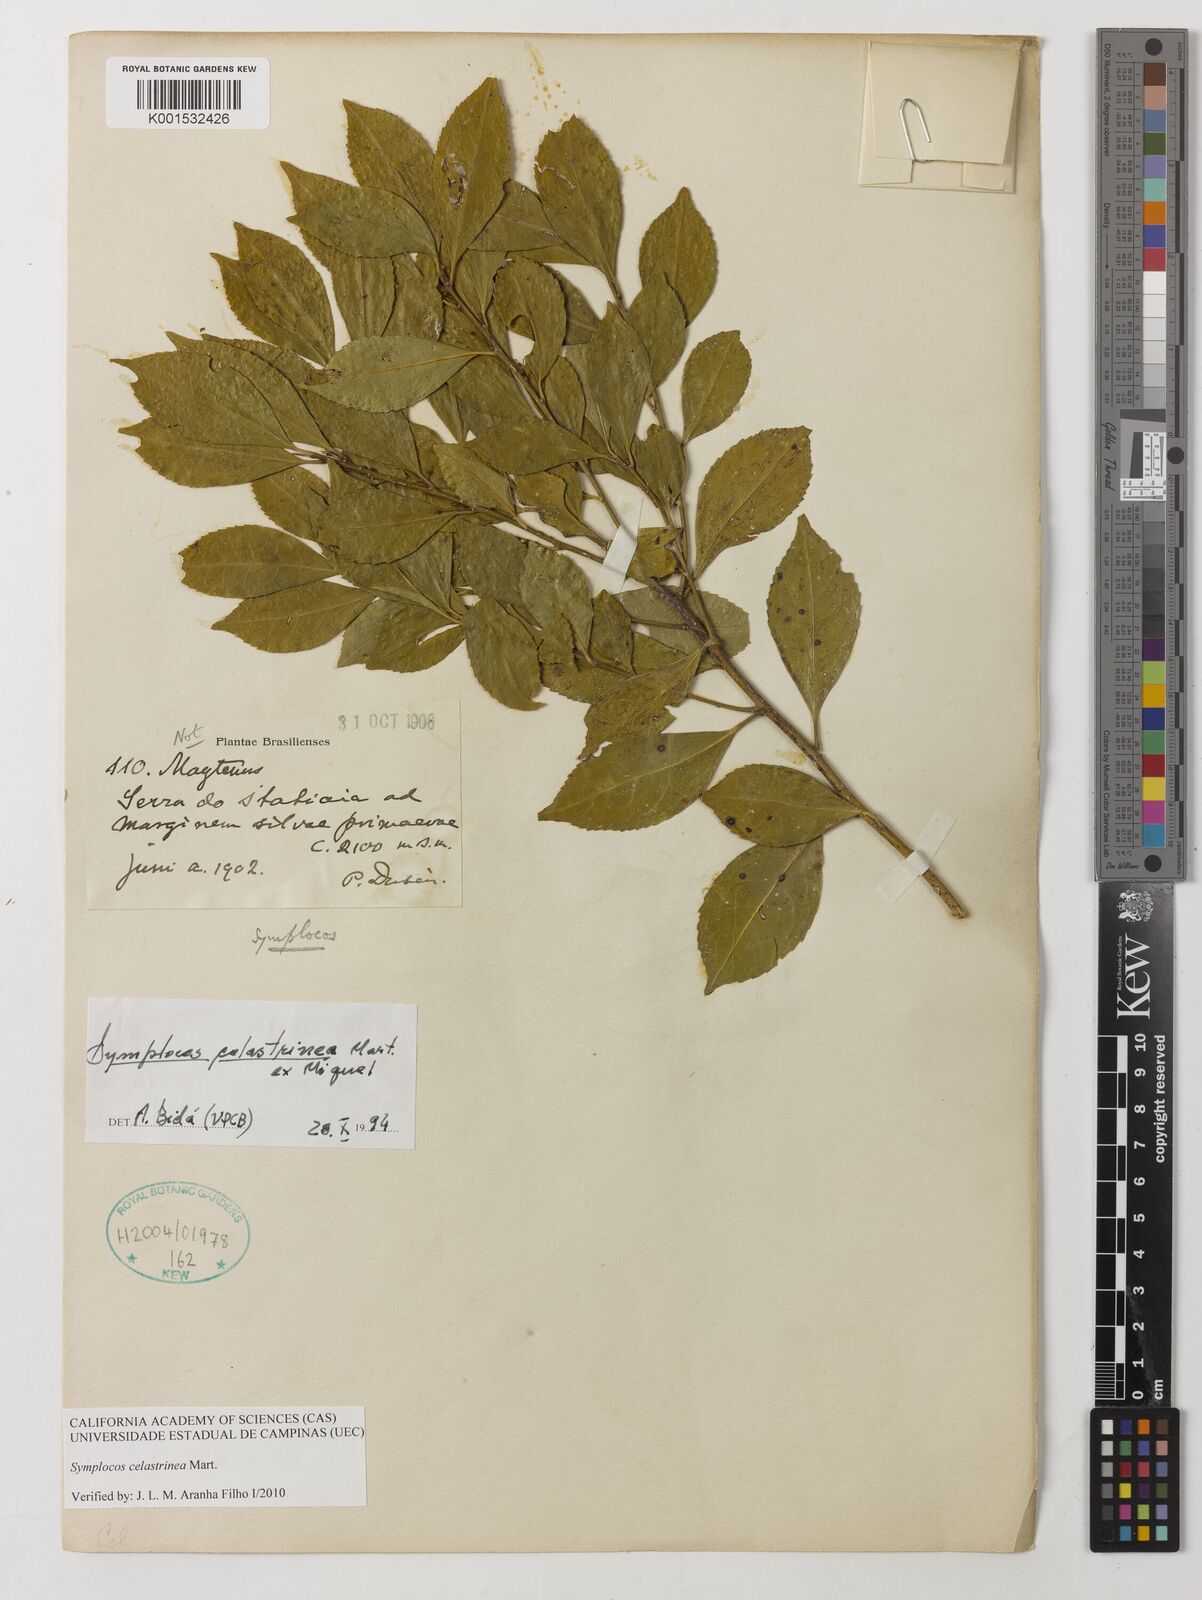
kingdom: Plantae
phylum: Tracheophyta
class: Magnoliopsida
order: Ericales
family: Symplocaceae
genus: Symplocos
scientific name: Symplocos celastrinea
